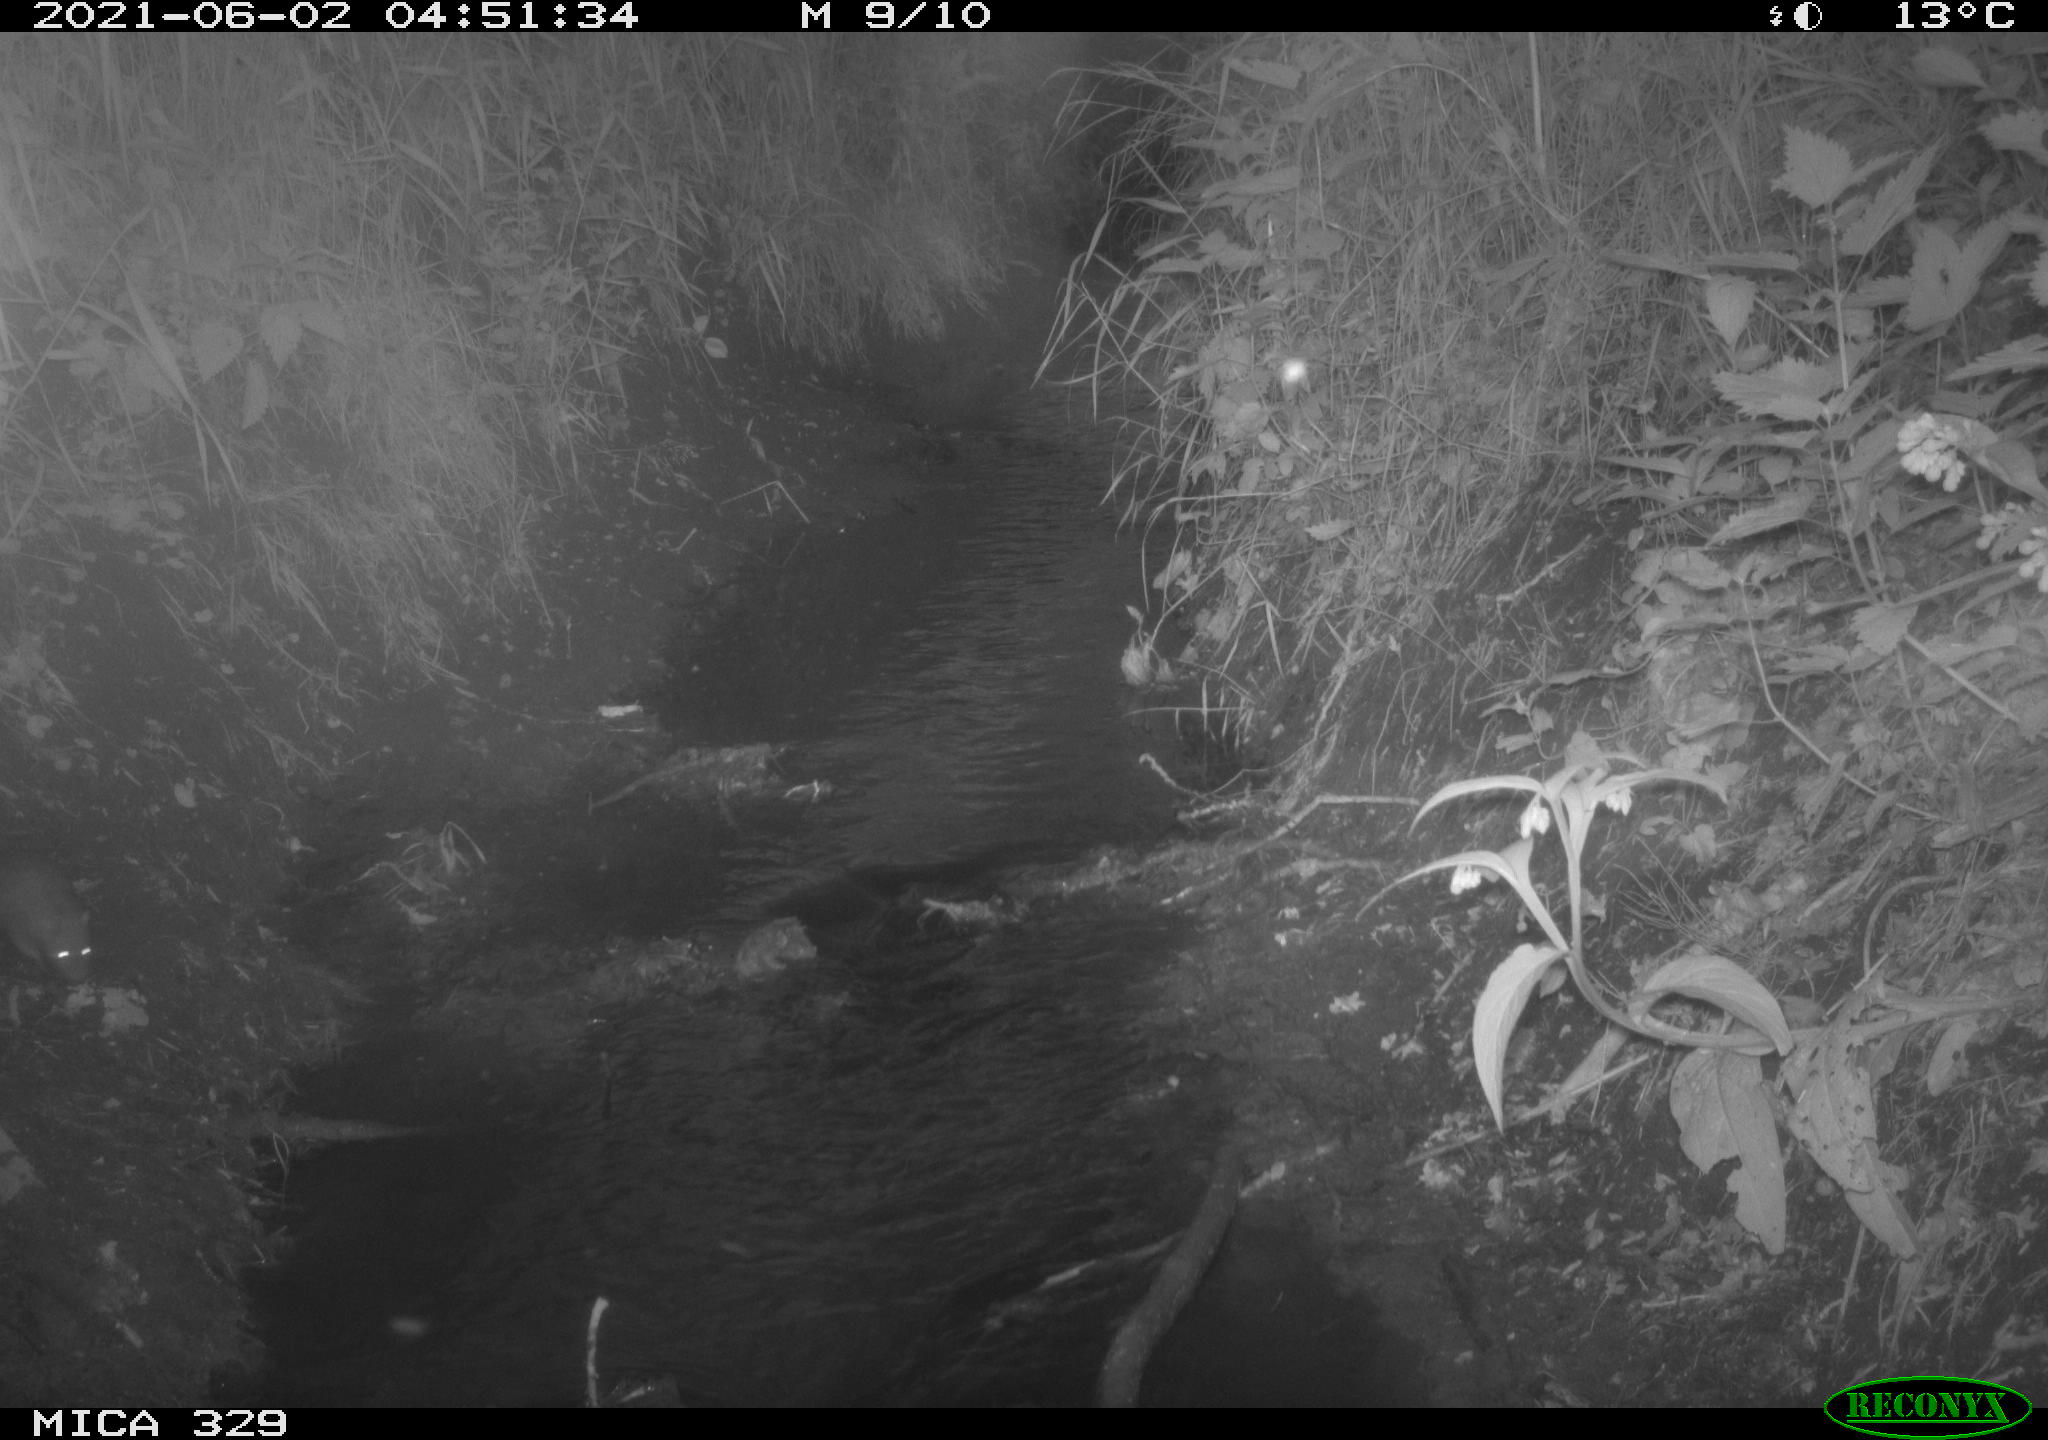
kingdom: Animalia
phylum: Chordata
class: Mammalia
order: Rodentia
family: Muridae
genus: Rattus
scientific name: Rattus norvegicus
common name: Brown rat
